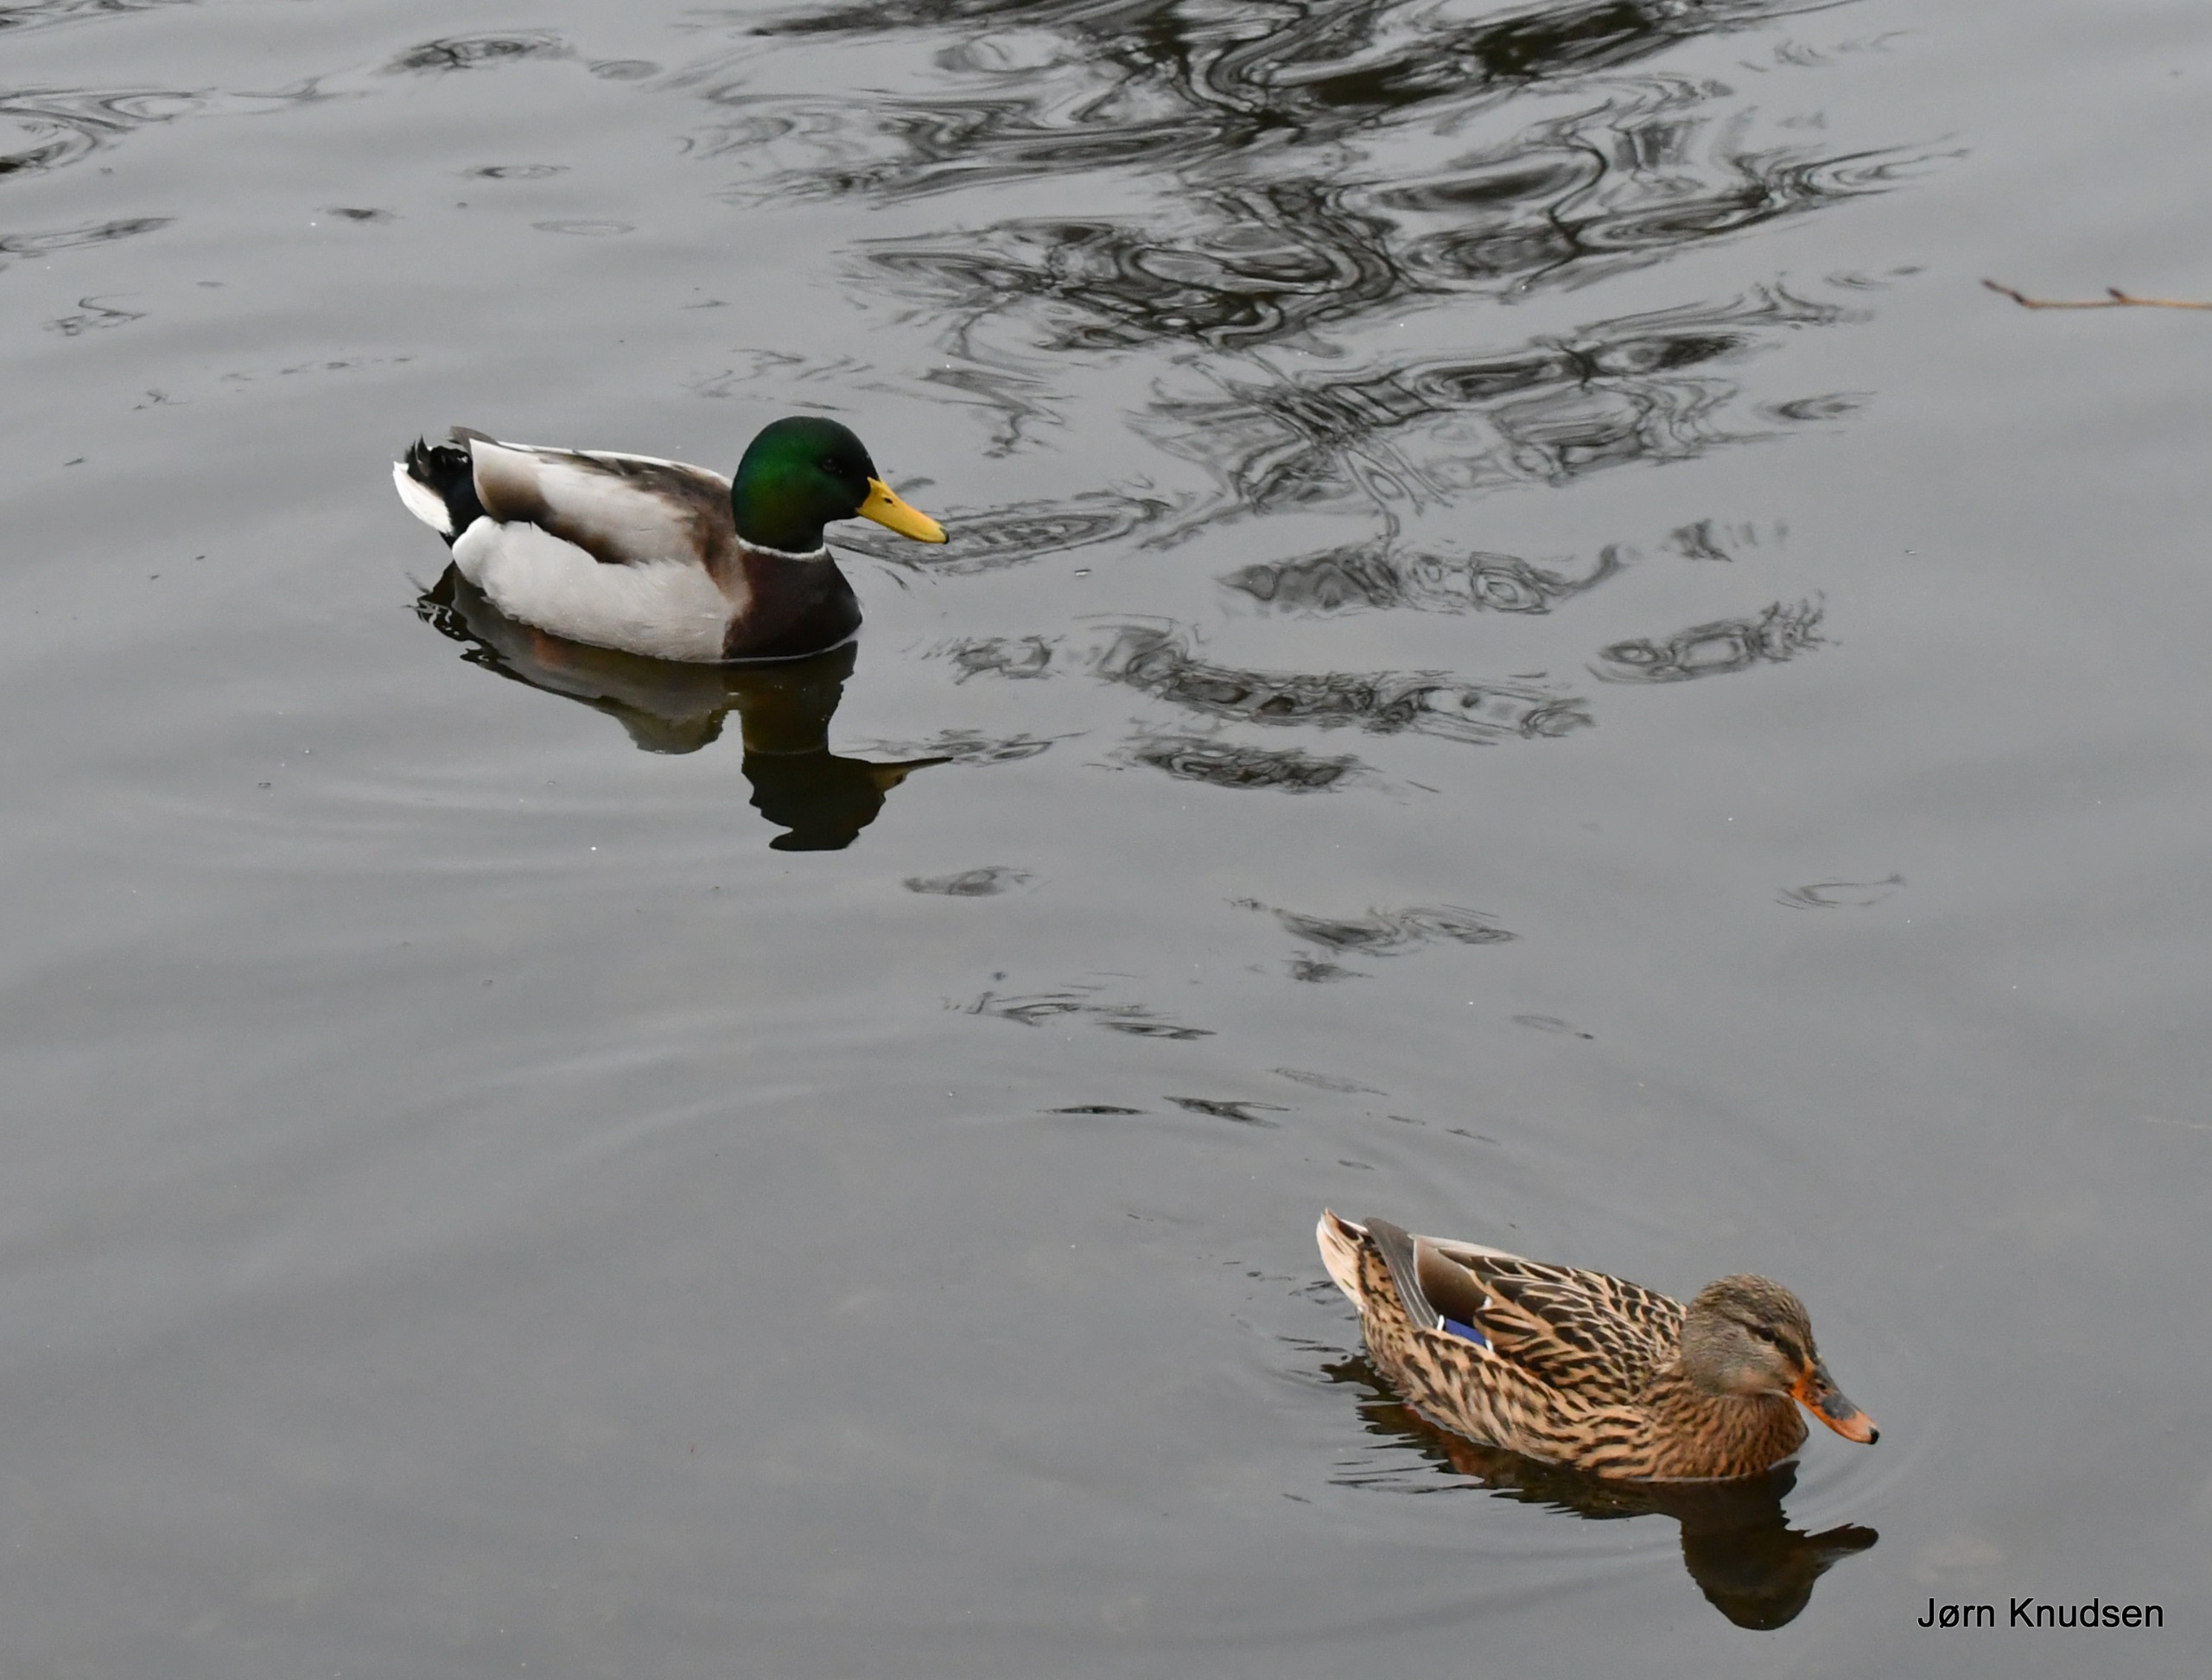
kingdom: Animalia
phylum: Chordata
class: Aves
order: Anseriformes
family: Anatidae
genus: Anas
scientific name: Anas platyrhynchos
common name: Gråand
